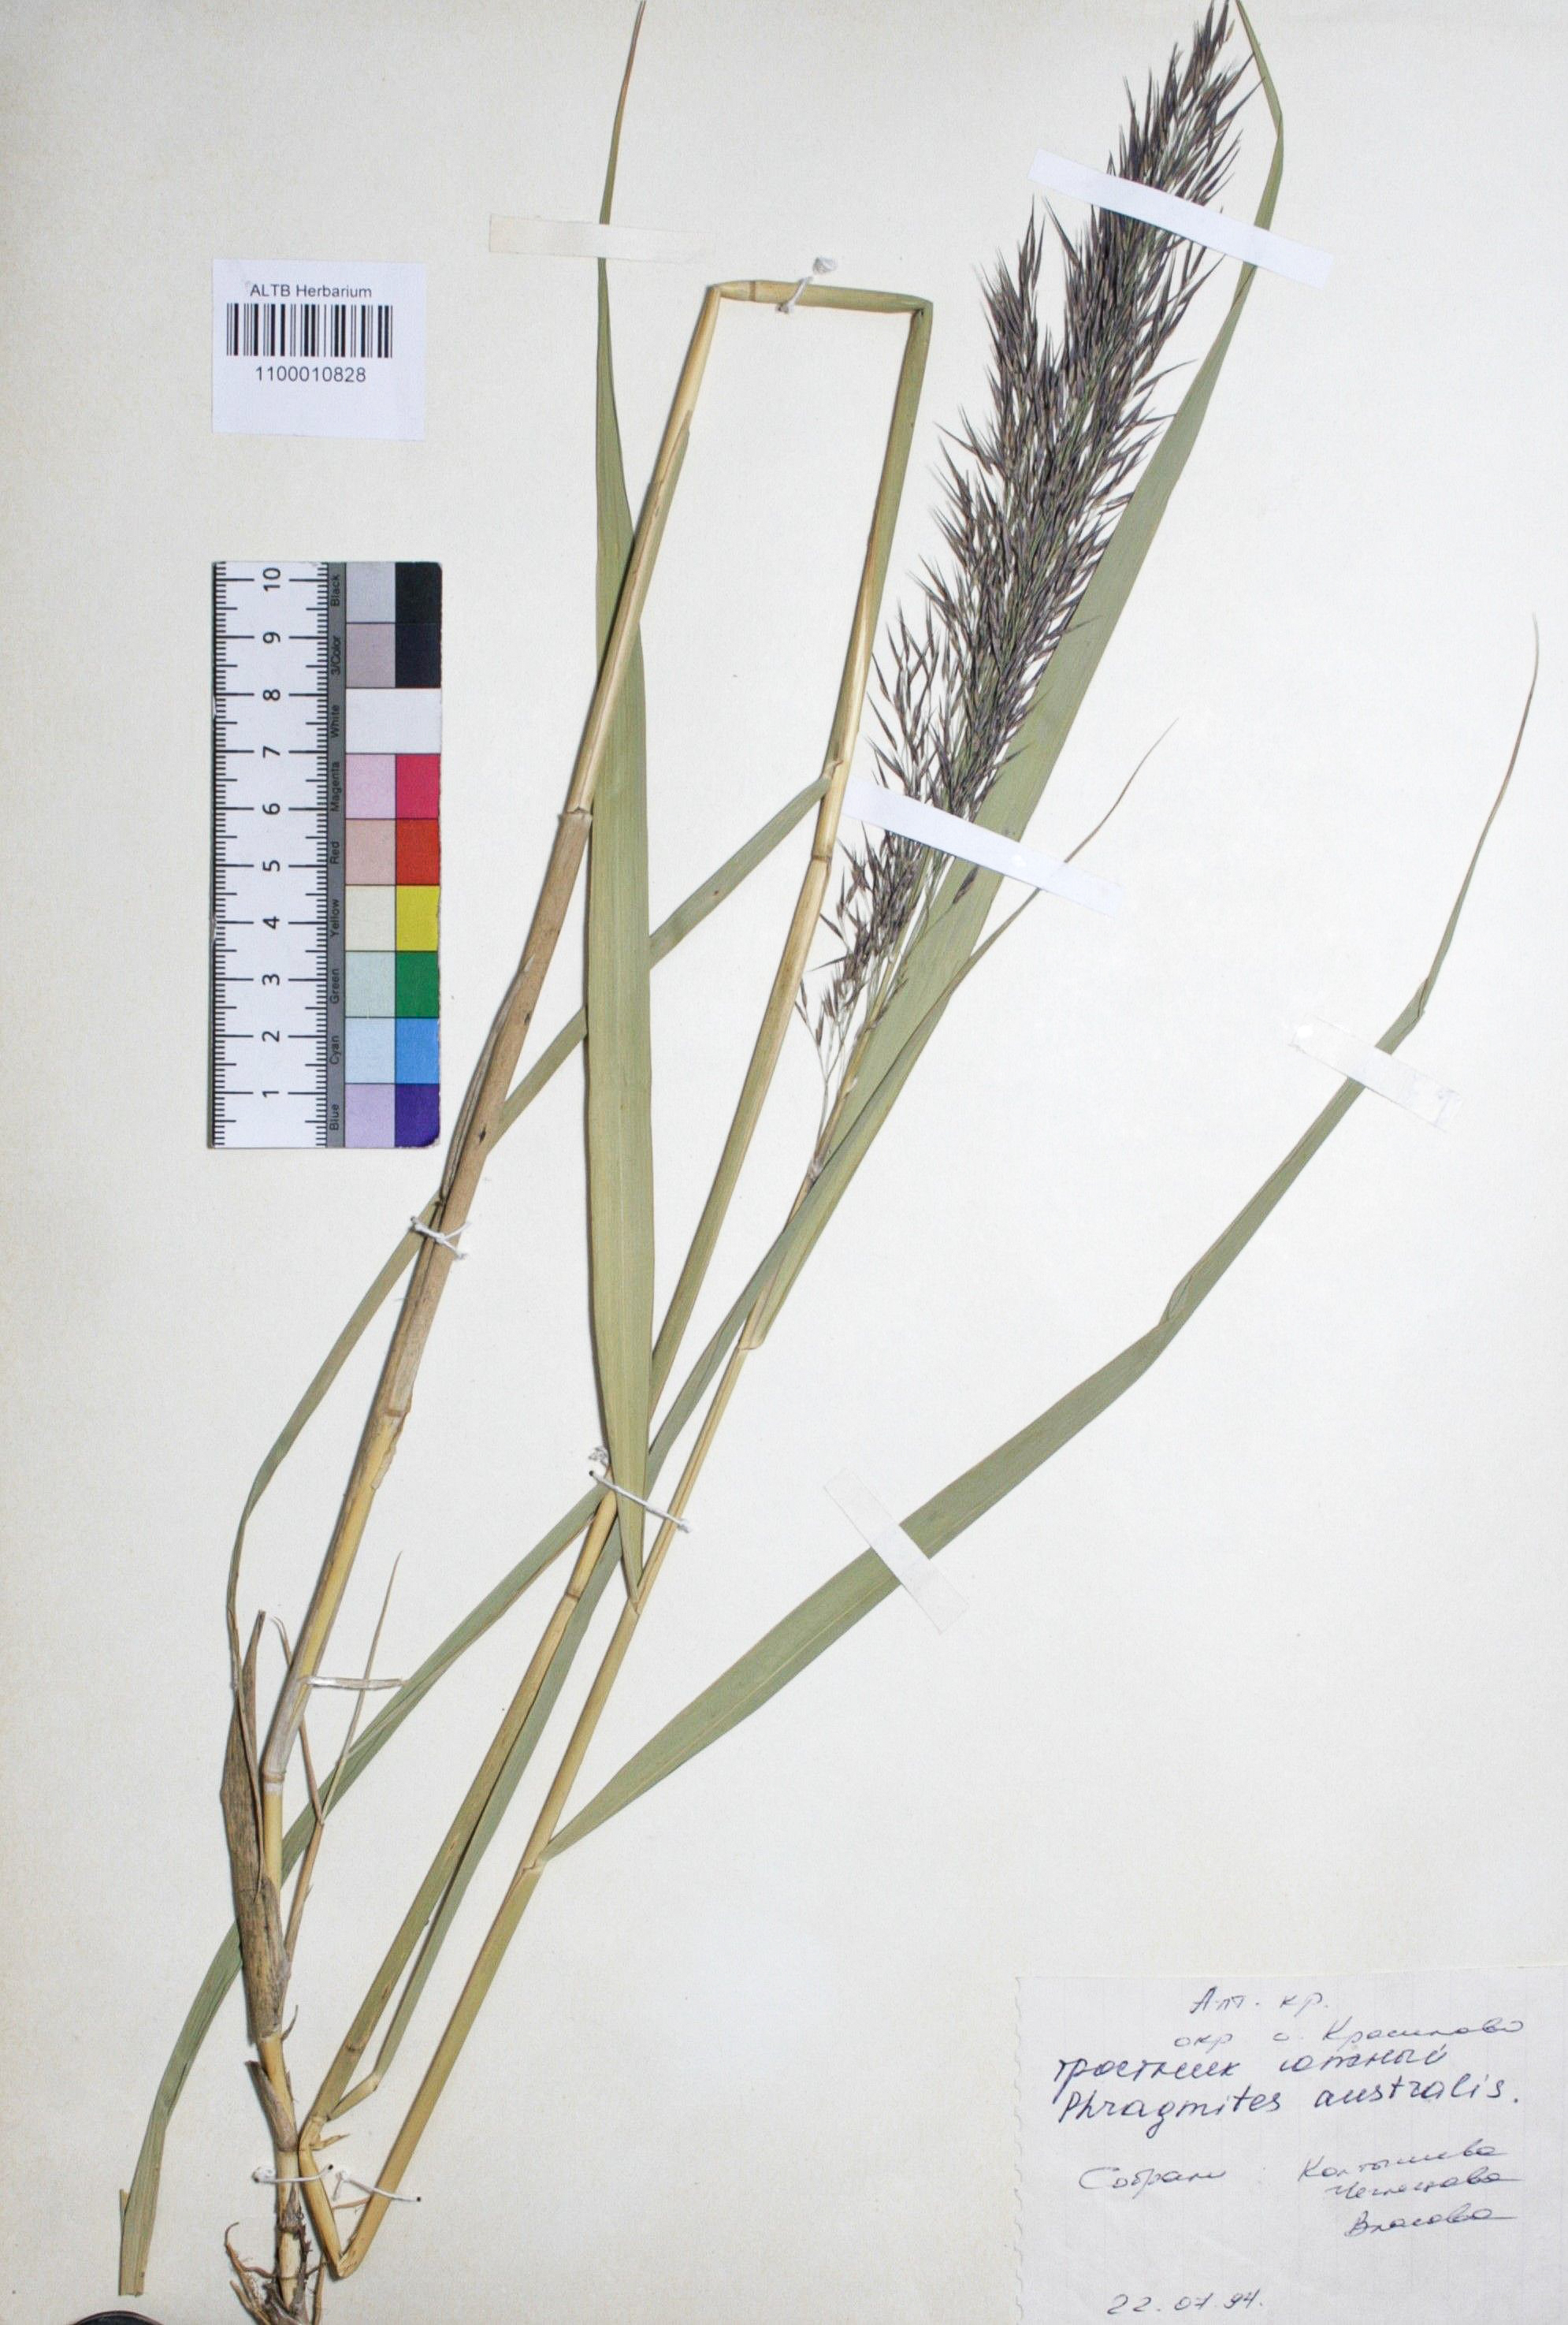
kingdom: Plantae
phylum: Tracheophyta
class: Liliopsida
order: Poales
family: Poaceae
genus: Phragmites
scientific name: Phragmites australis
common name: Common reed
